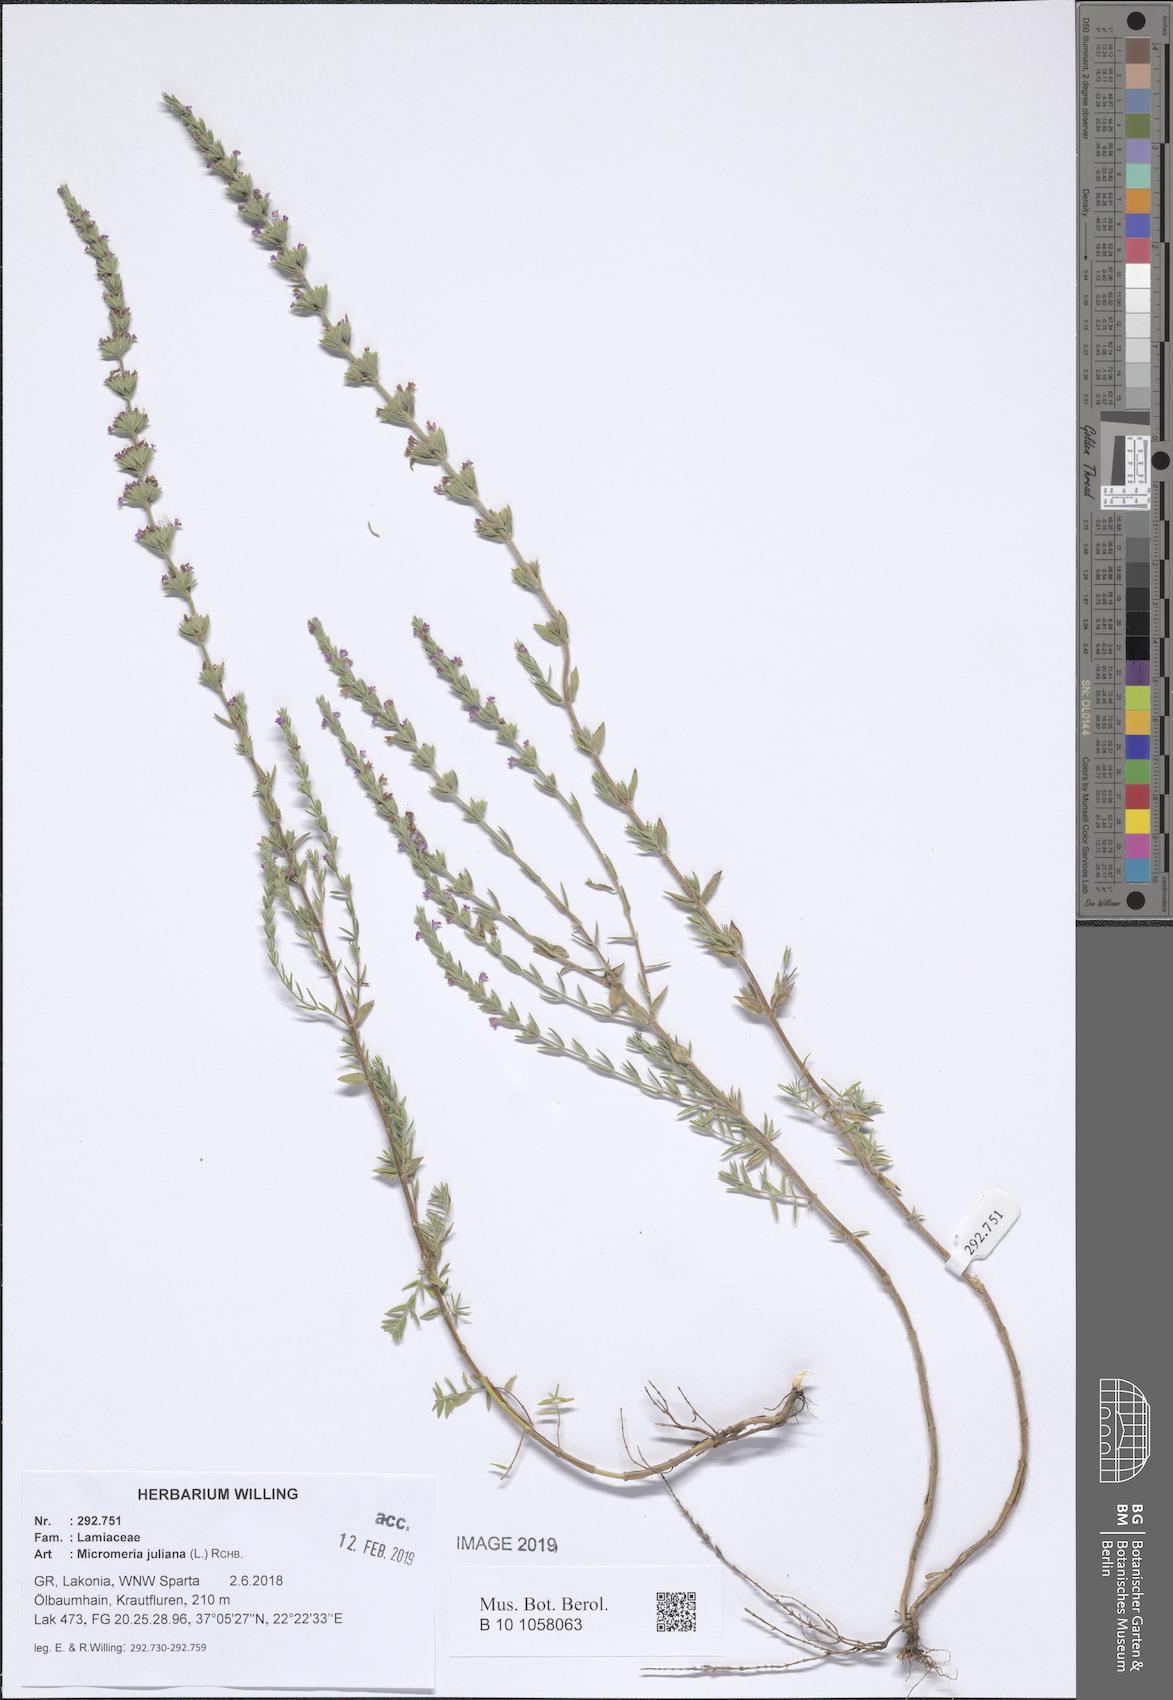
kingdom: Plantae
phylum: Tracheophyta
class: Magnoliopsida
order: Lamiales
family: Lamiaceae
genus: Micromeria
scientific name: Micromeria juliana
